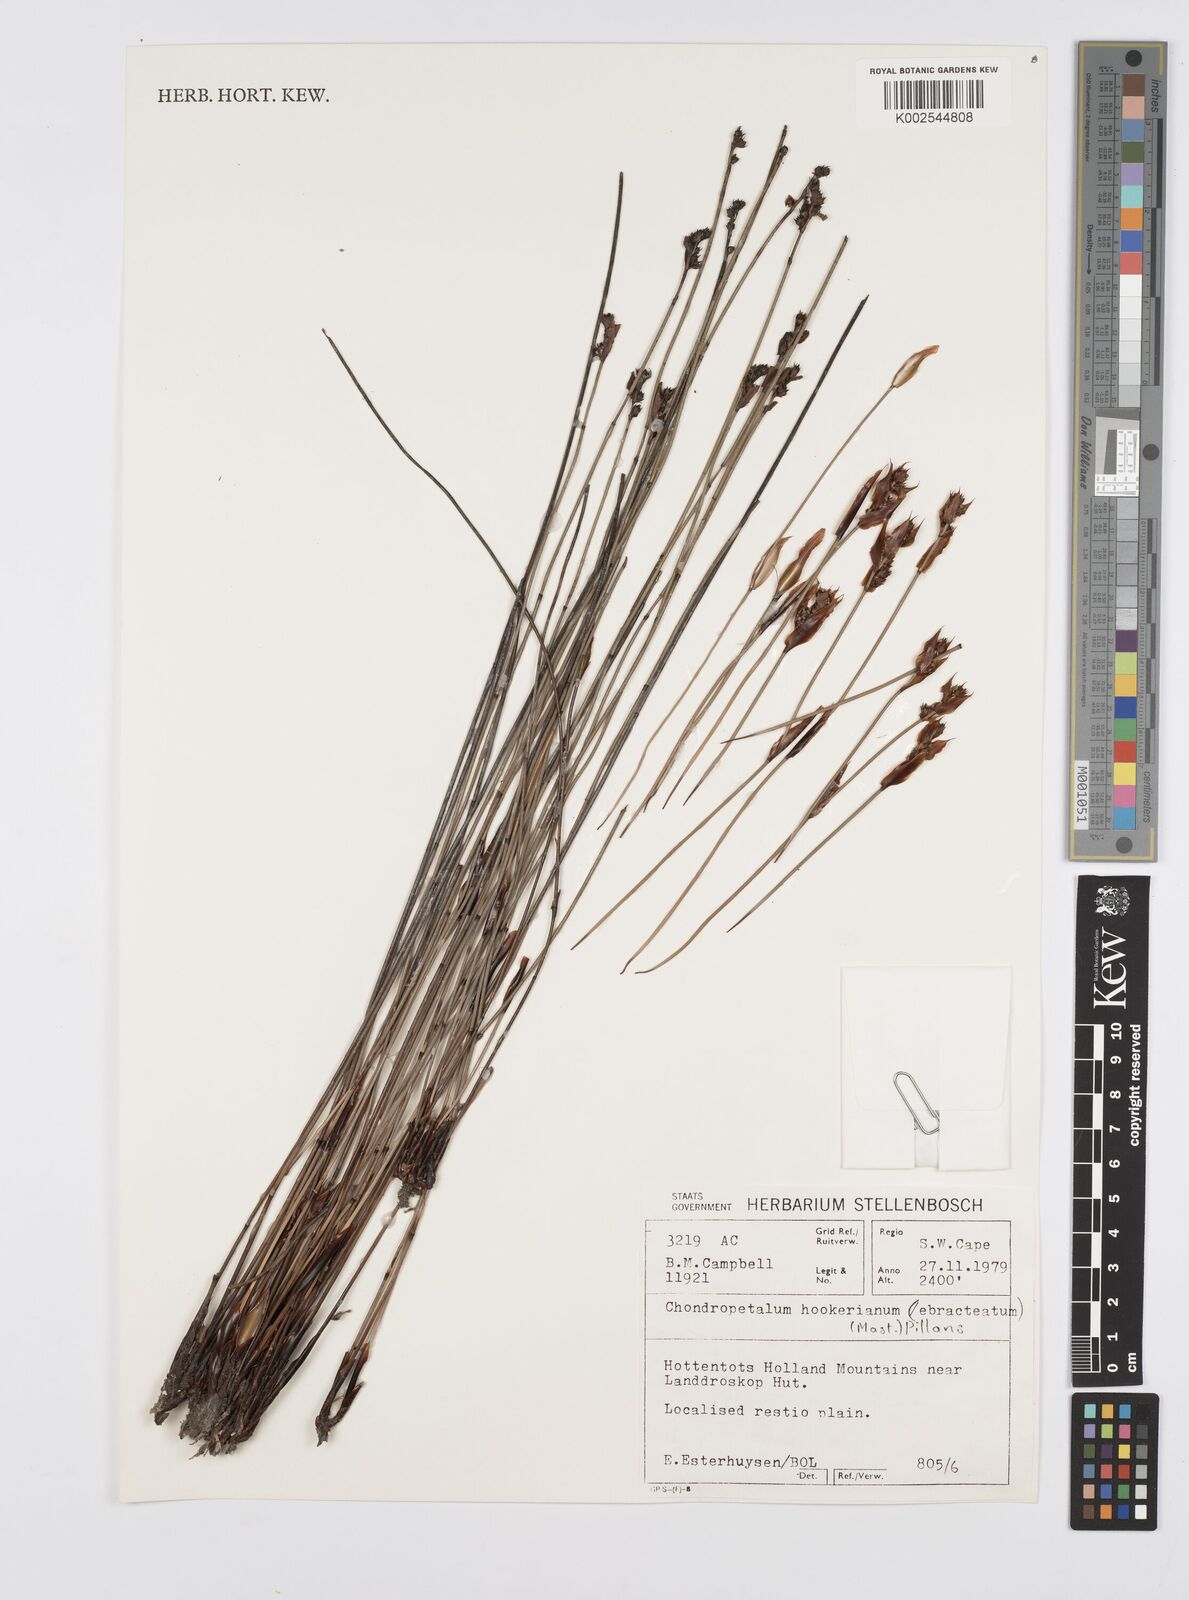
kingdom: Plantae
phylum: Tracheophyta
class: Liliopsida
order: Poales
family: Restionaceae
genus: Elegia
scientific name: Elegia hookeriana
